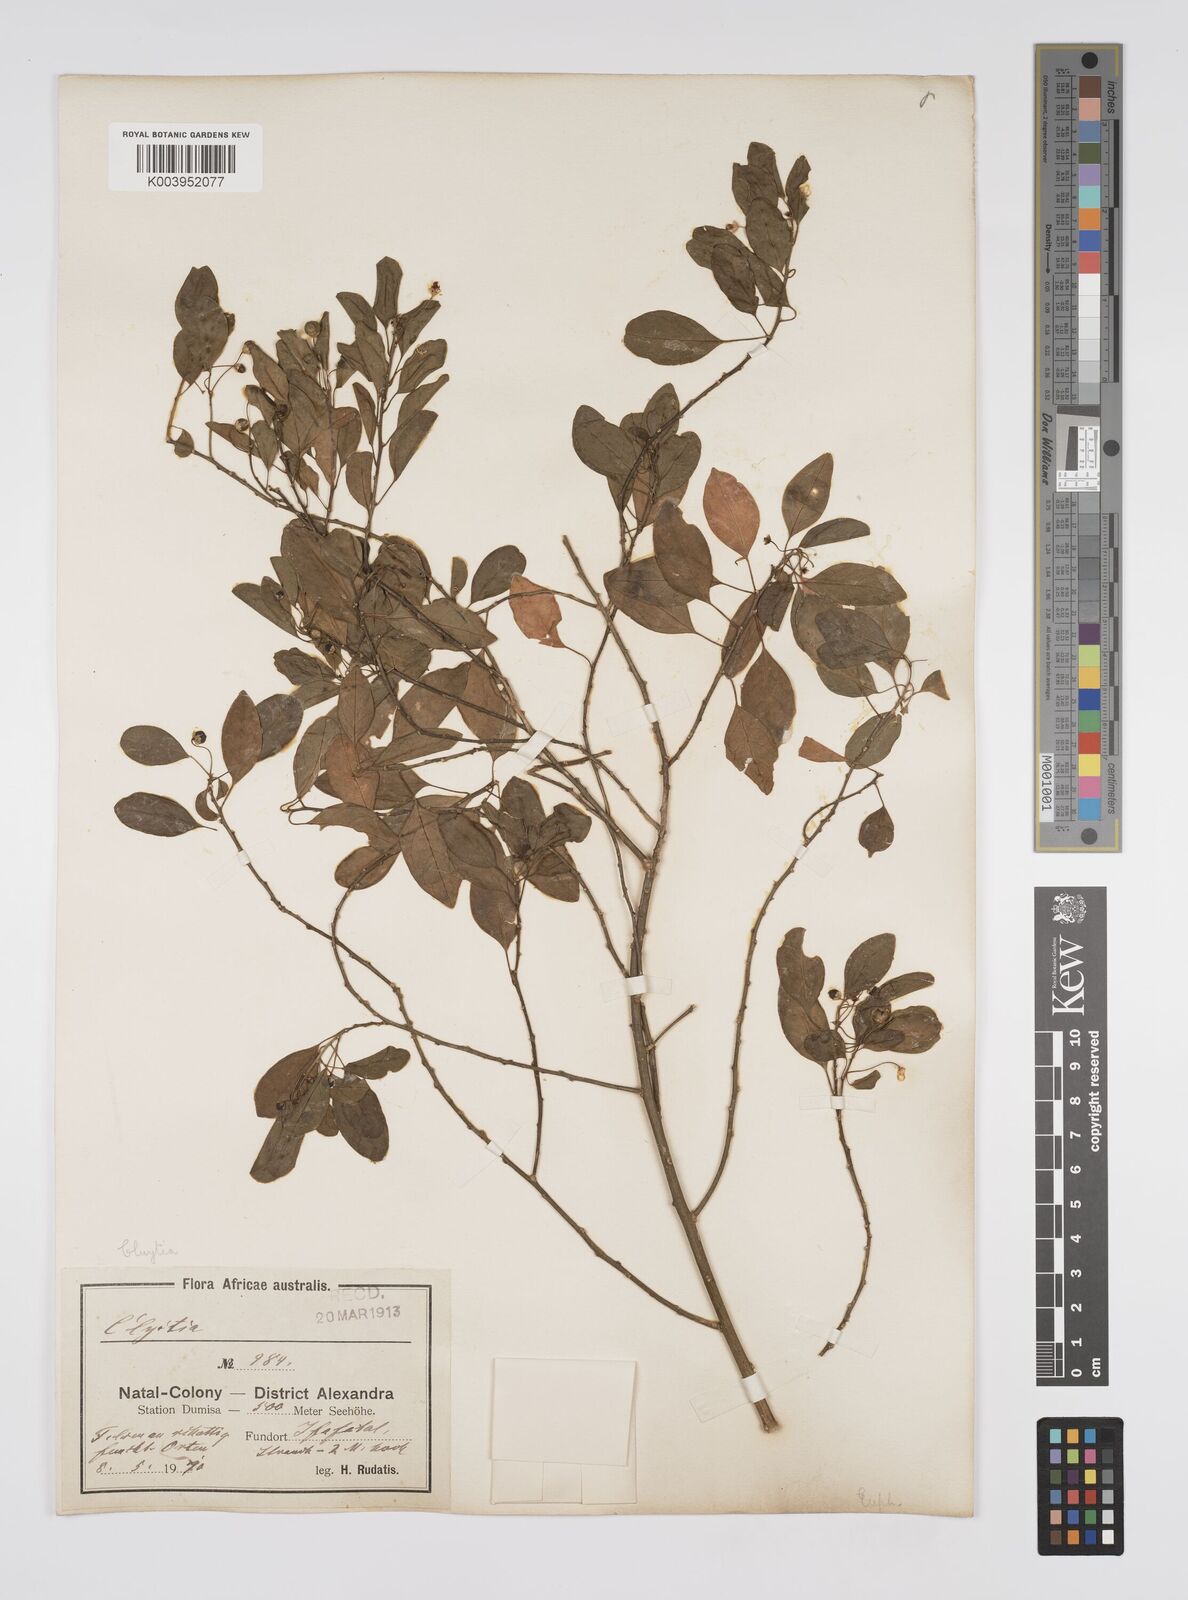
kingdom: Plantae
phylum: Tracheophyta
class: Magnoliopsida
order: Malpighiales
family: Peraceae
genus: Clutia
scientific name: Clutia
